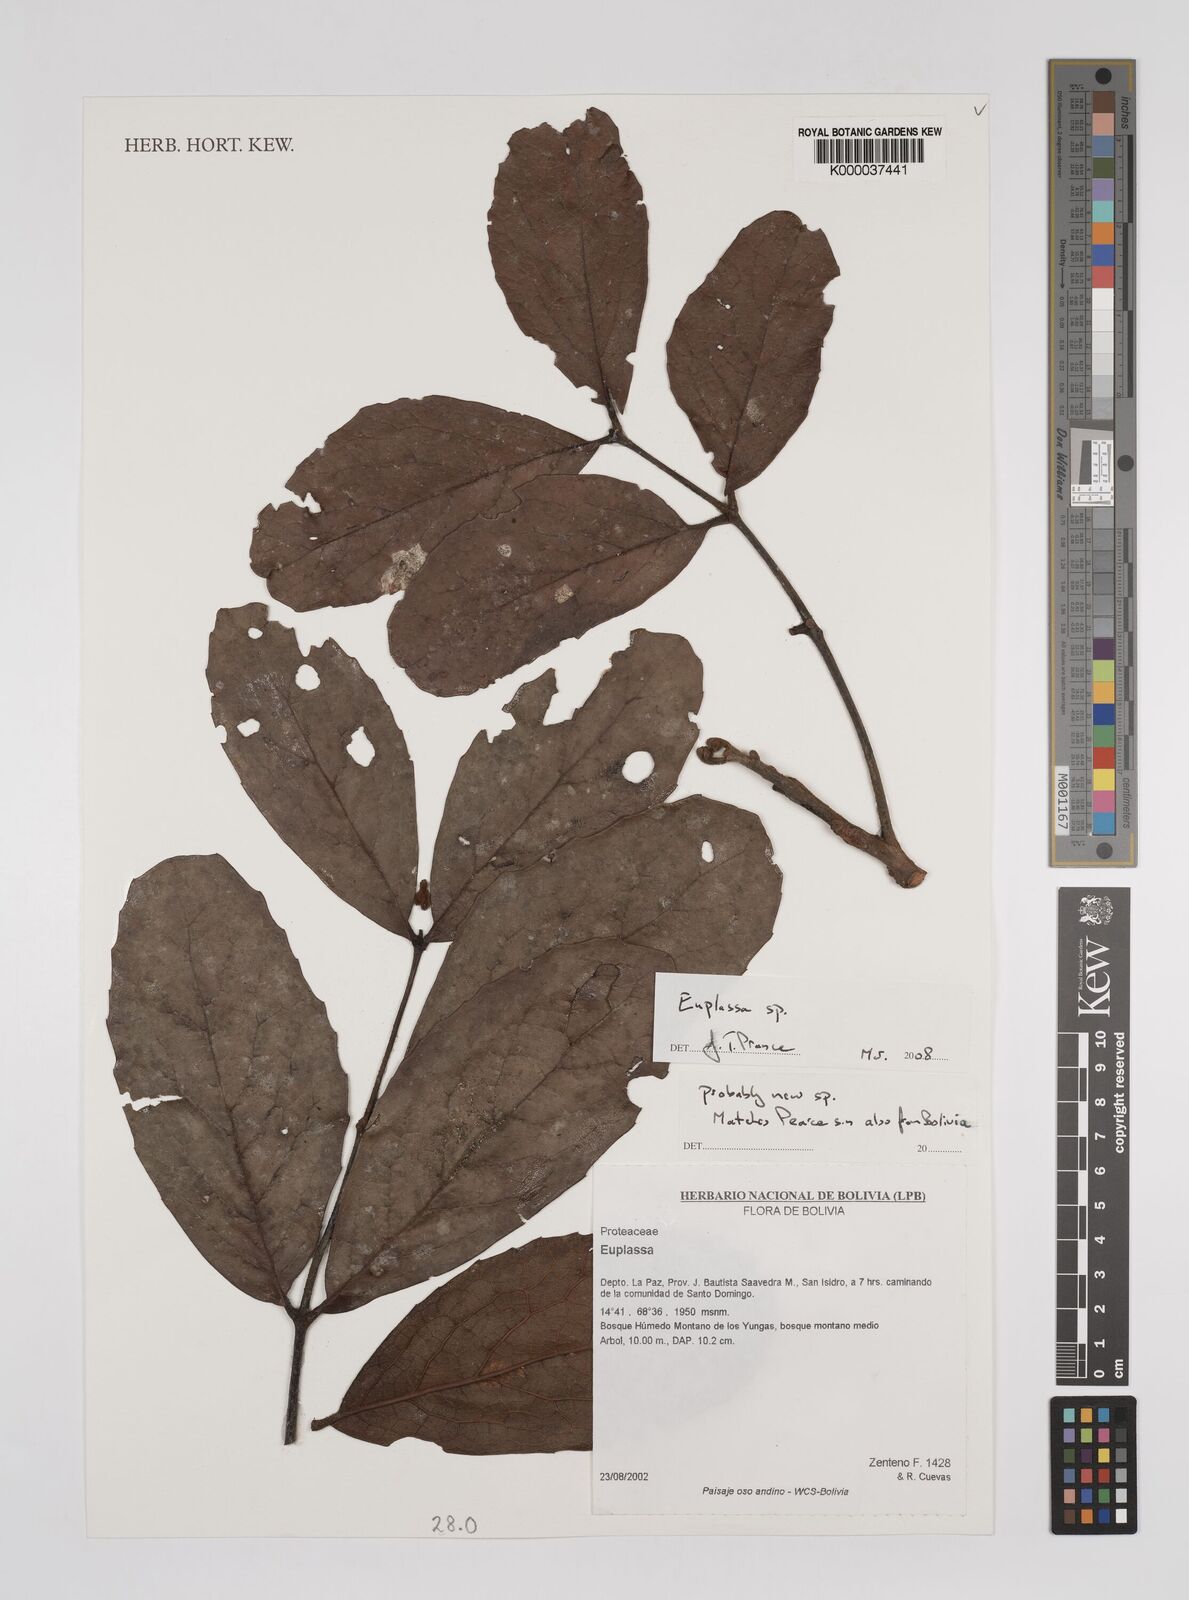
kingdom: Plantae
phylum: Tracheophyta
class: Magnoliopsida
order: Proteales
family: Proteaceae
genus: Euplassa
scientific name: Euplassa
